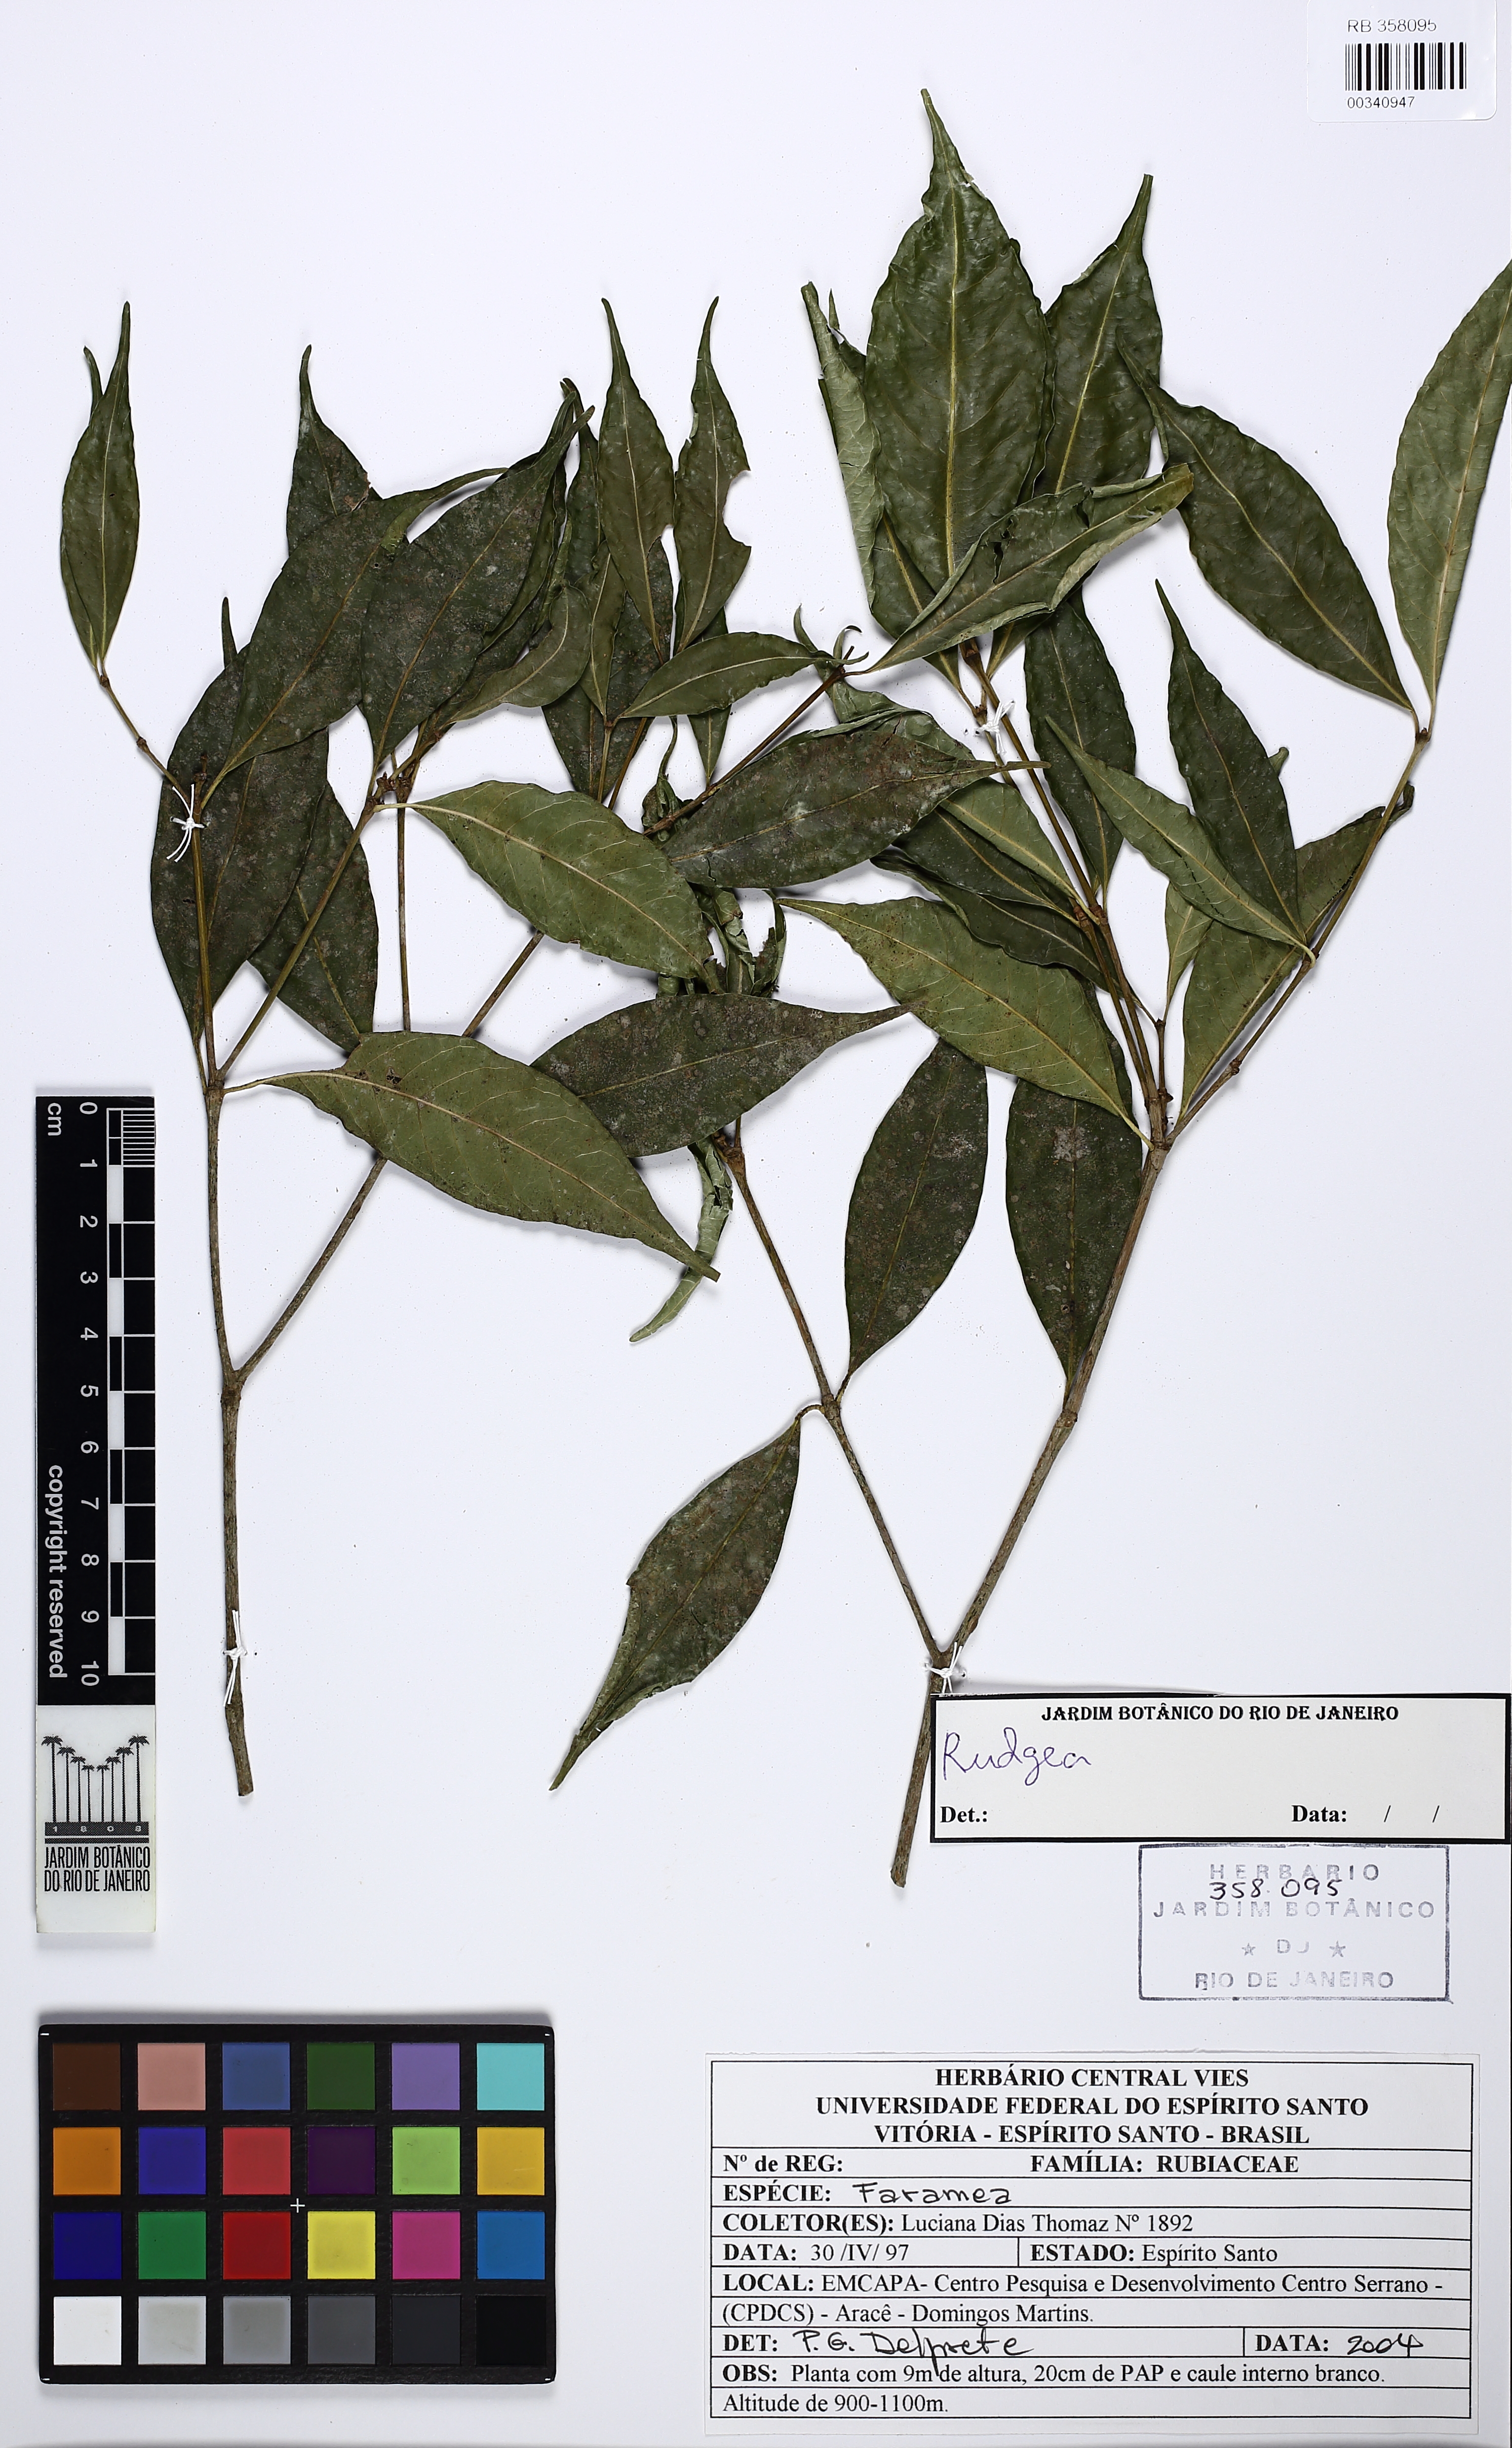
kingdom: Plantae
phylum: Tracheophyta
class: Magnoliopsida
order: Gentianales
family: Rubiaceae
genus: Rudgea
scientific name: Rudgea recurva
